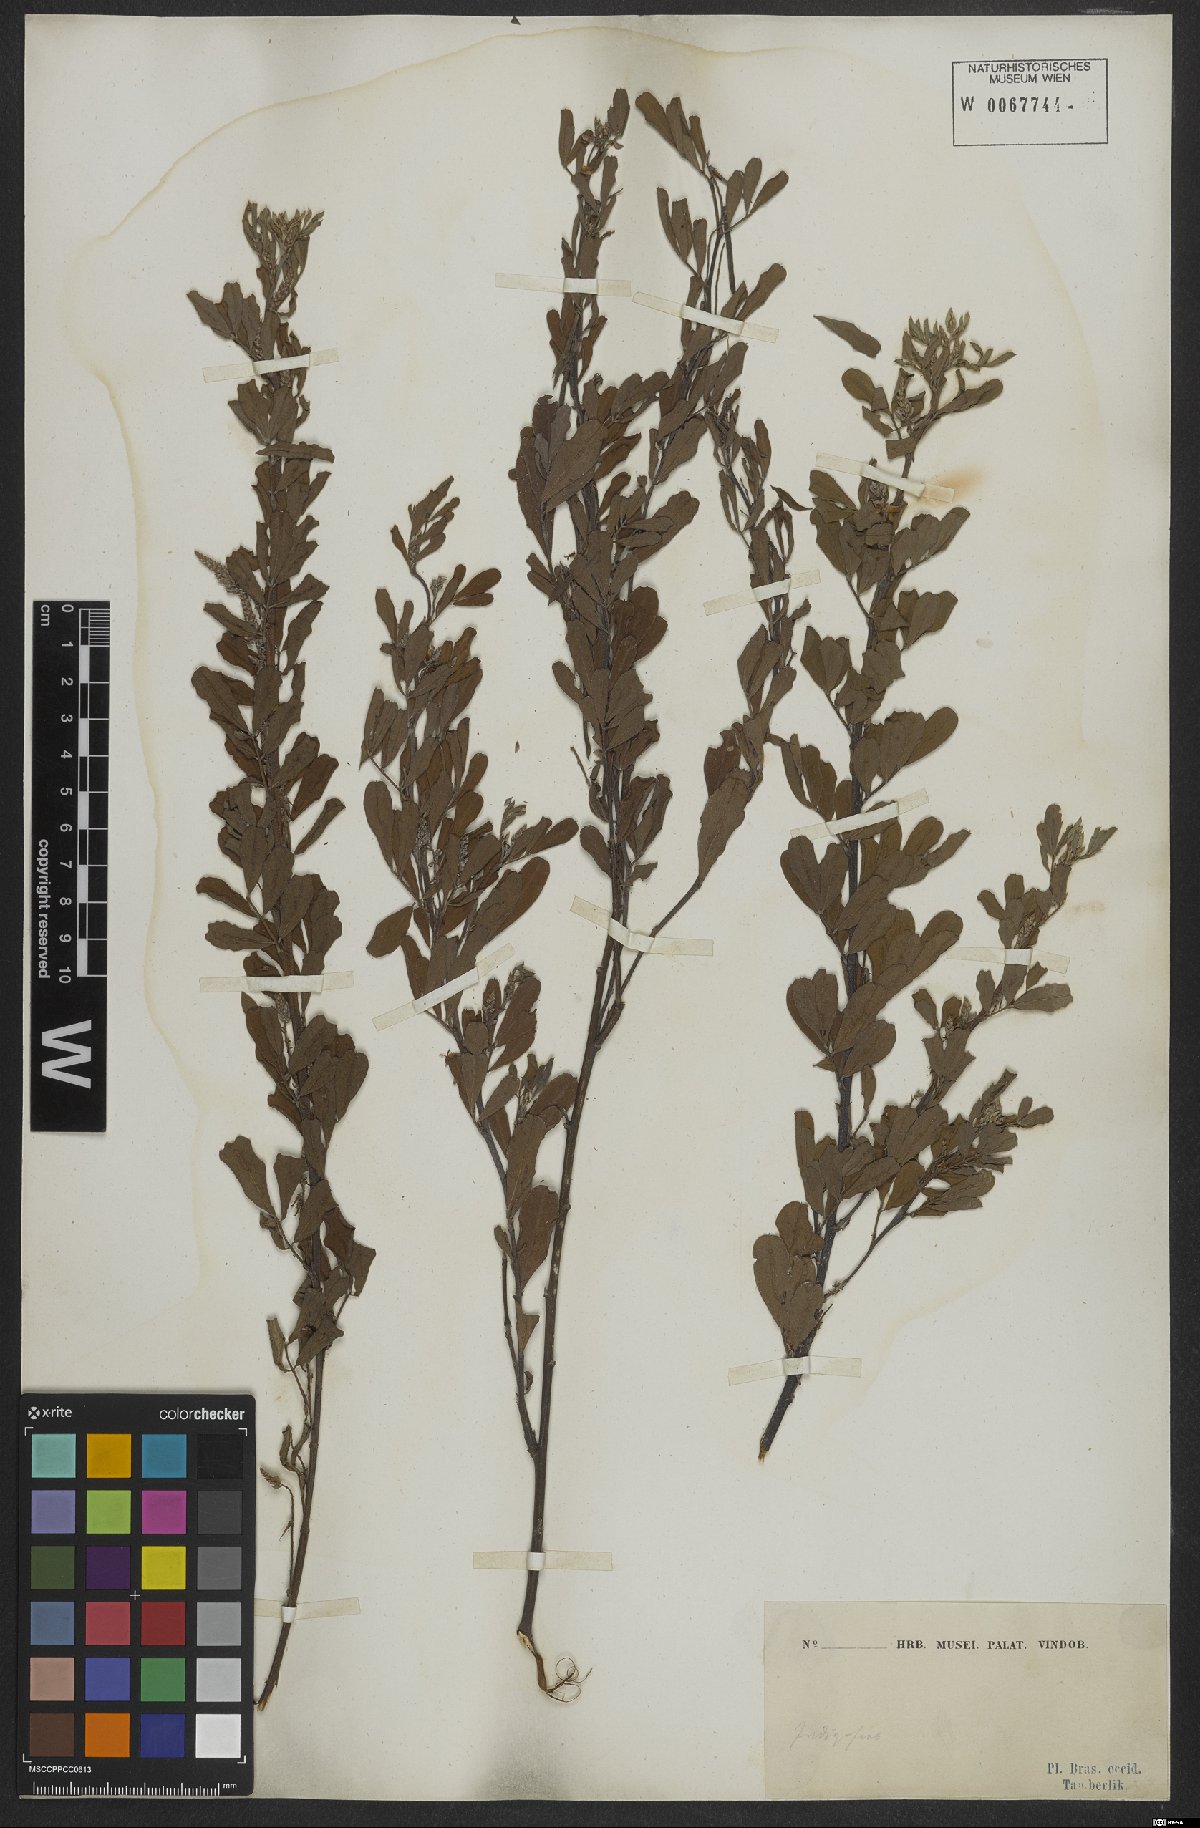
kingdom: Plantae
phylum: Tracheophyta
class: Magnoliopsida
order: Fabales
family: Fabaceae
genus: Indigofera
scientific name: Indigofera
